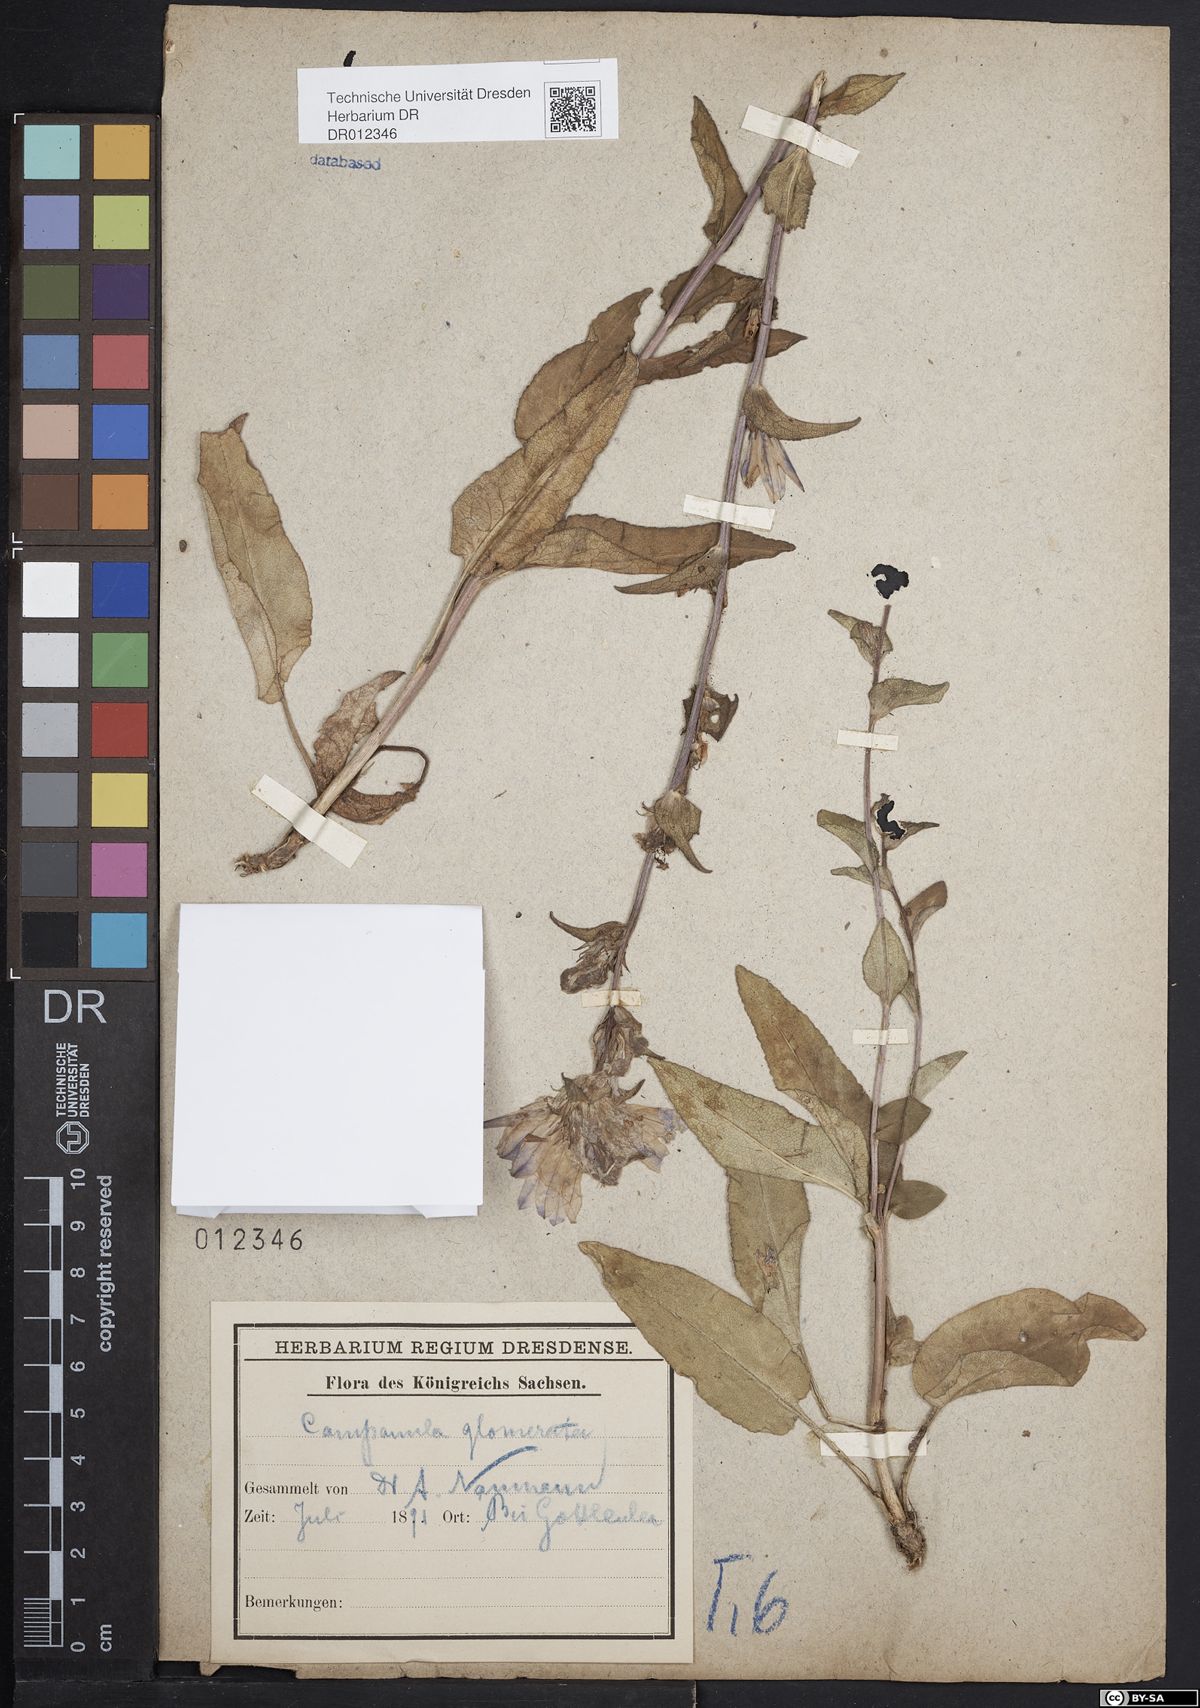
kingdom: Plantae
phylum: Tracheophyta
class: Magnoliopsida
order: Asterales
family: Campanulaceae
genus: Campanula
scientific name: Campanula glomerata
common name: Clustered bellflower
